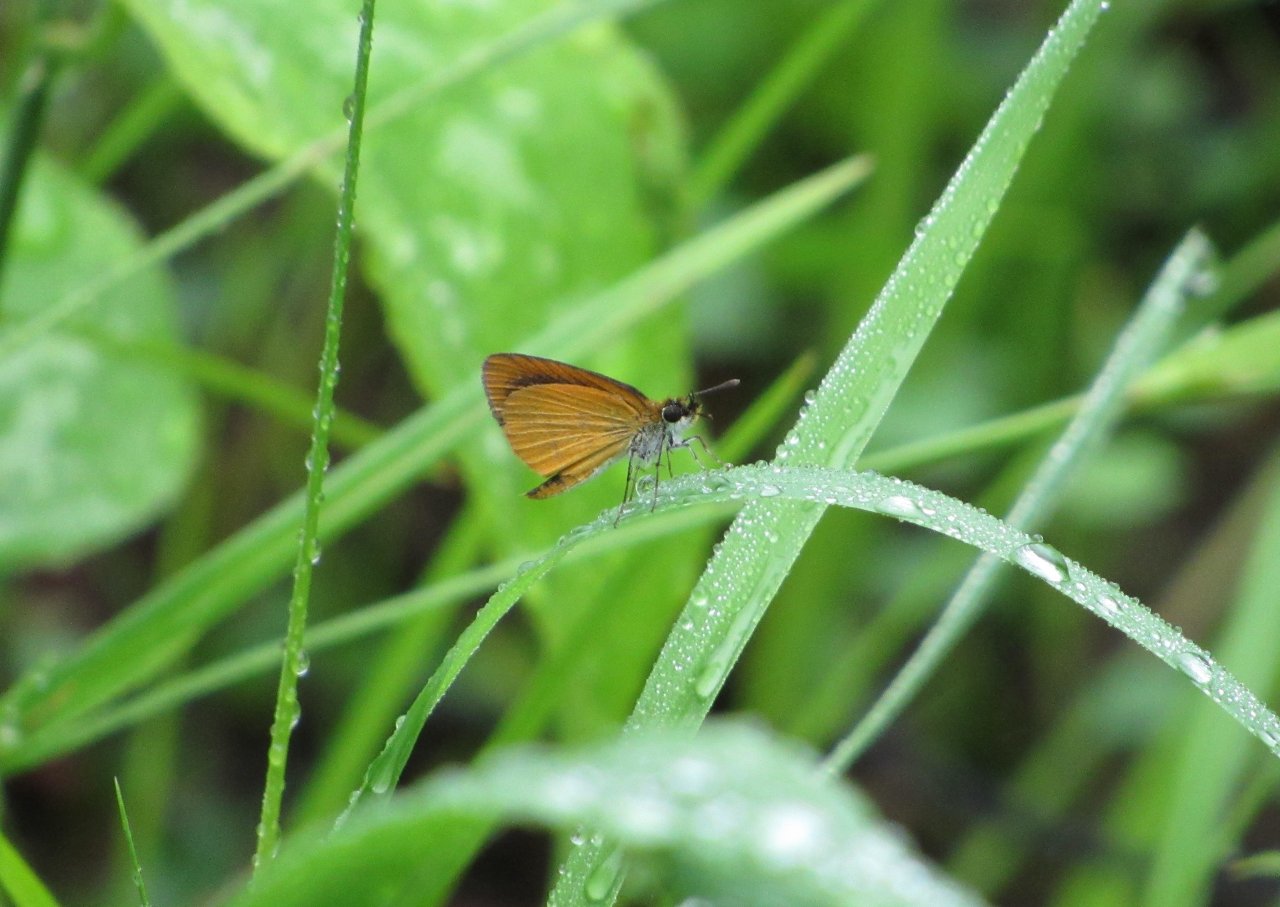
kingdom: Animalia
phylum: Arthropoda
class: Insecta
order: Lepidoptera
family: Hesperiidae
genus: Ancyloxypha
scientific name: Ancyloxypha numitor
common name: Least Skipper
